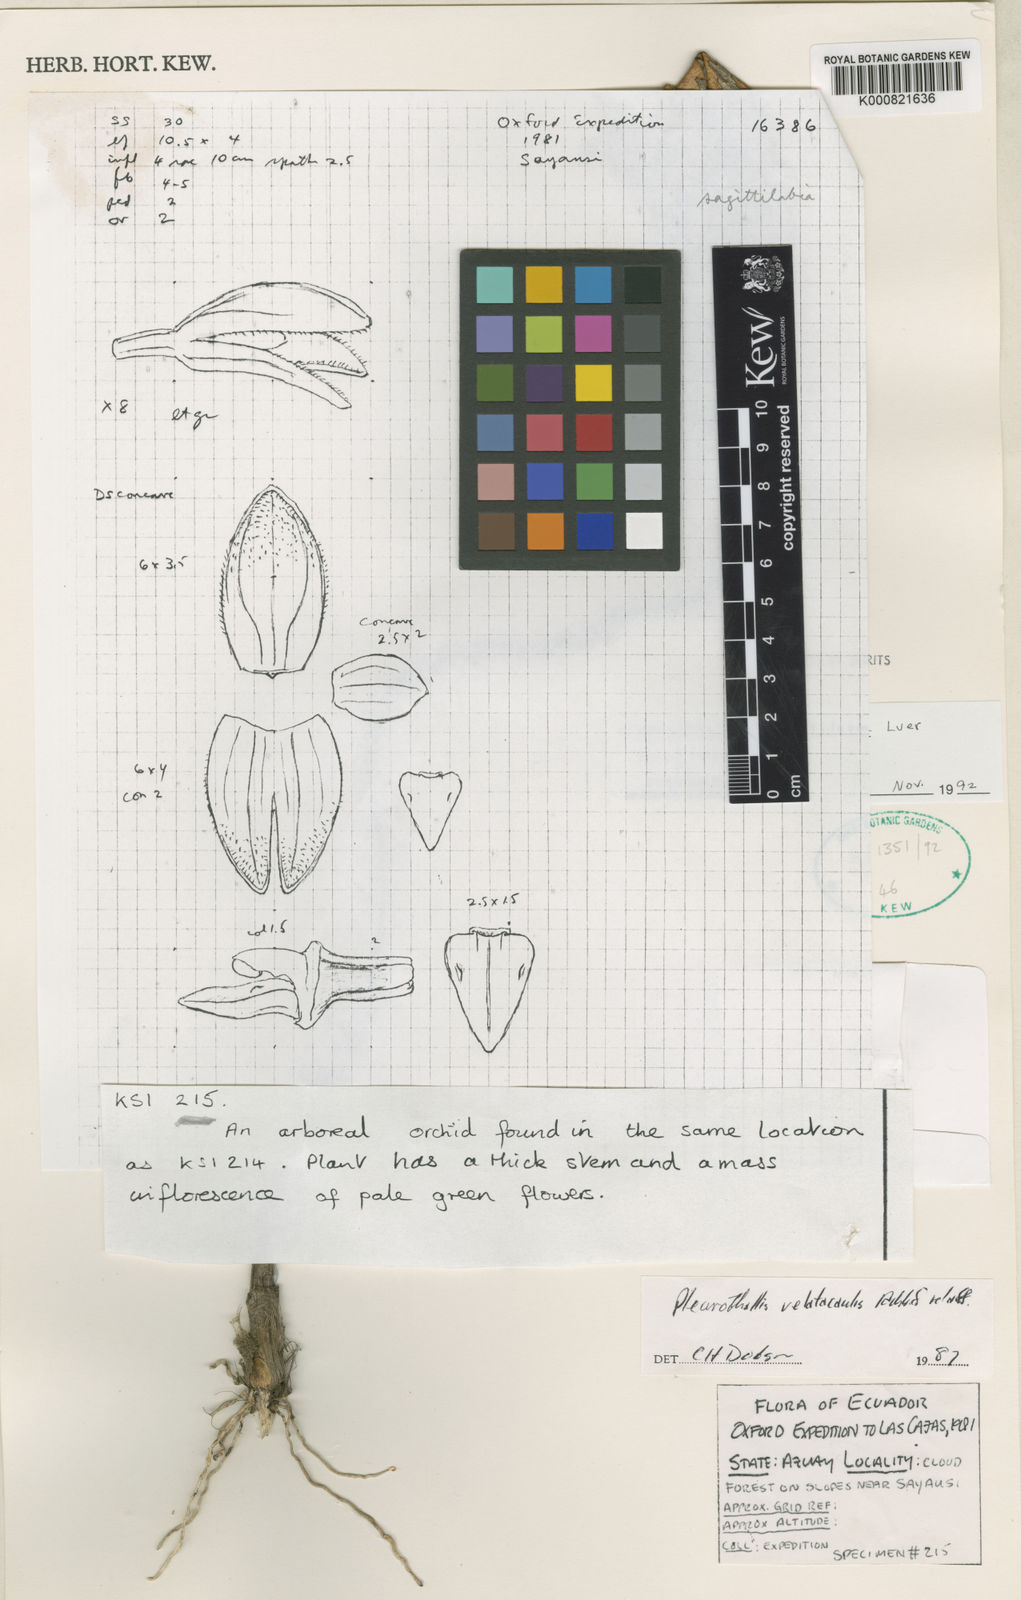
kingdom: Plantae
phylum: Tracheophyta
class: Liliopsida
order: Asparagales
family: Orchidaceae
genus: Pleurothallis
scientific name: Pleurothallis sagittilabia
